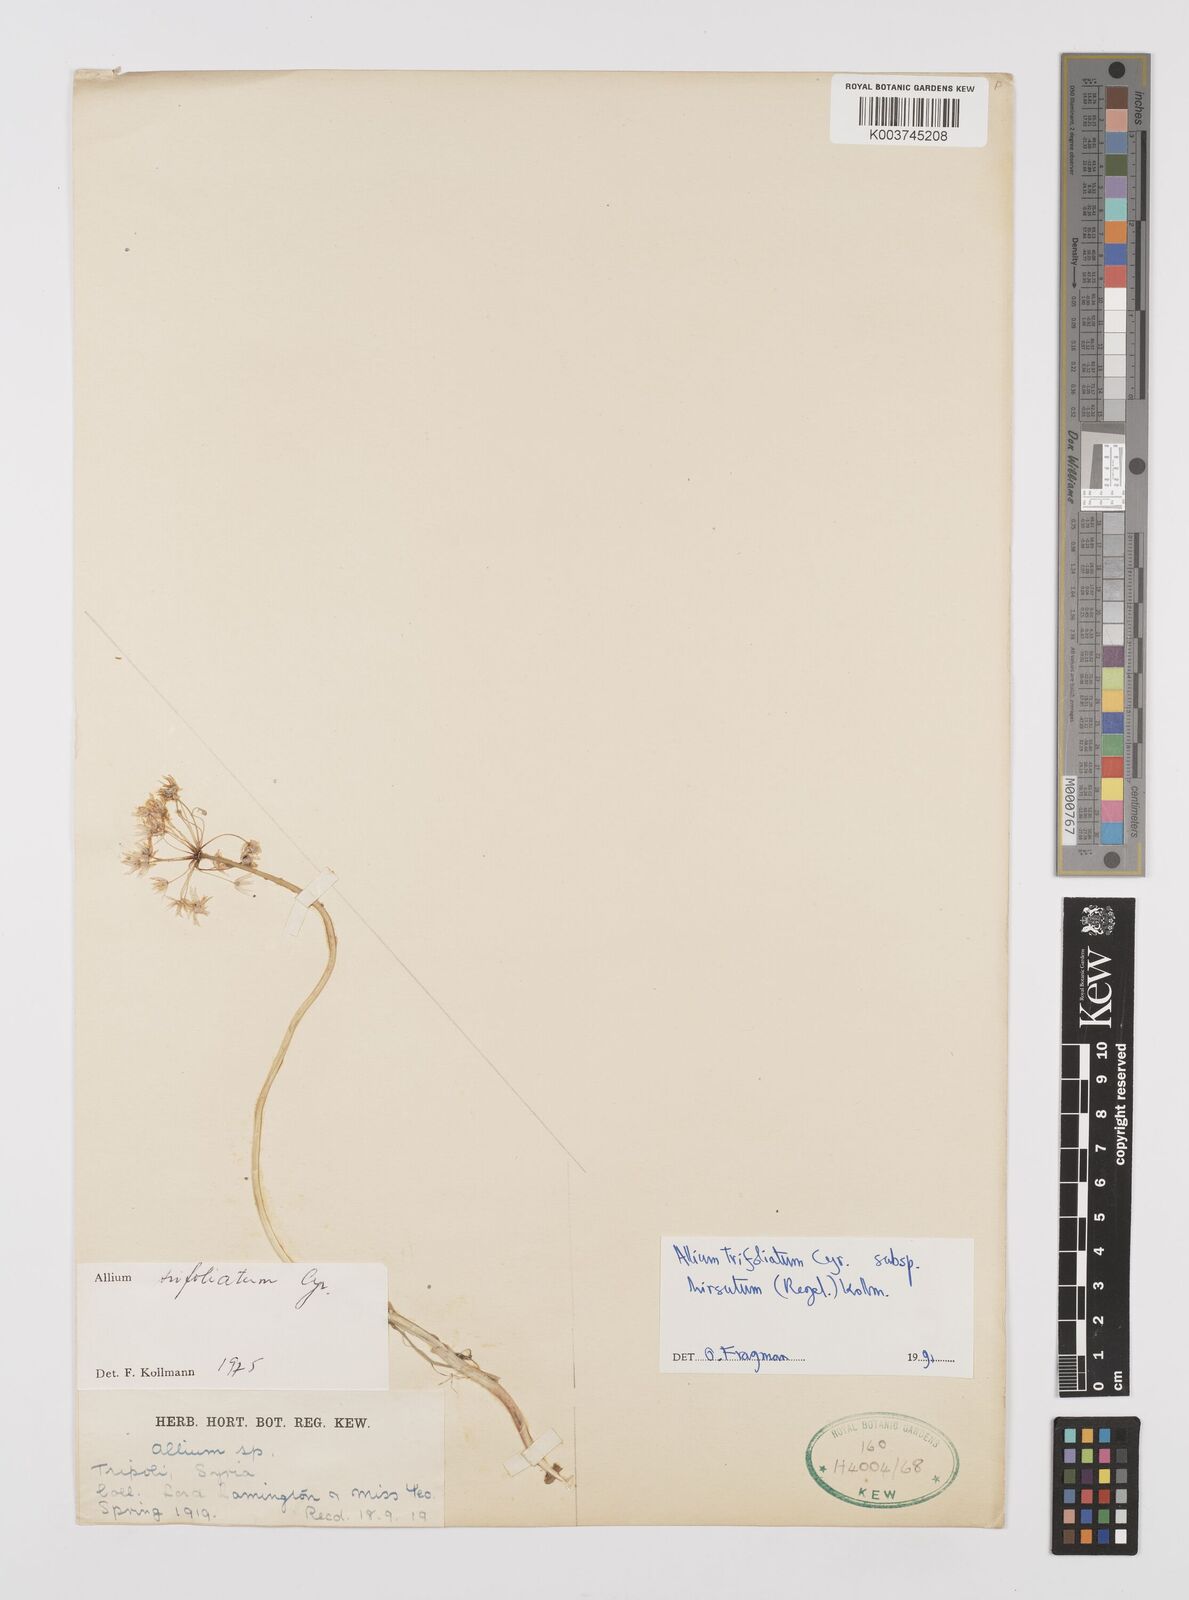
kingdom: Plantae
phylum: Tracheophyta
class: Liliopsida
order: Asparagales
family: Amaryllidaceae
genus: Allium
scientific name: Allium trifoliatum
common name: Pink garlic
